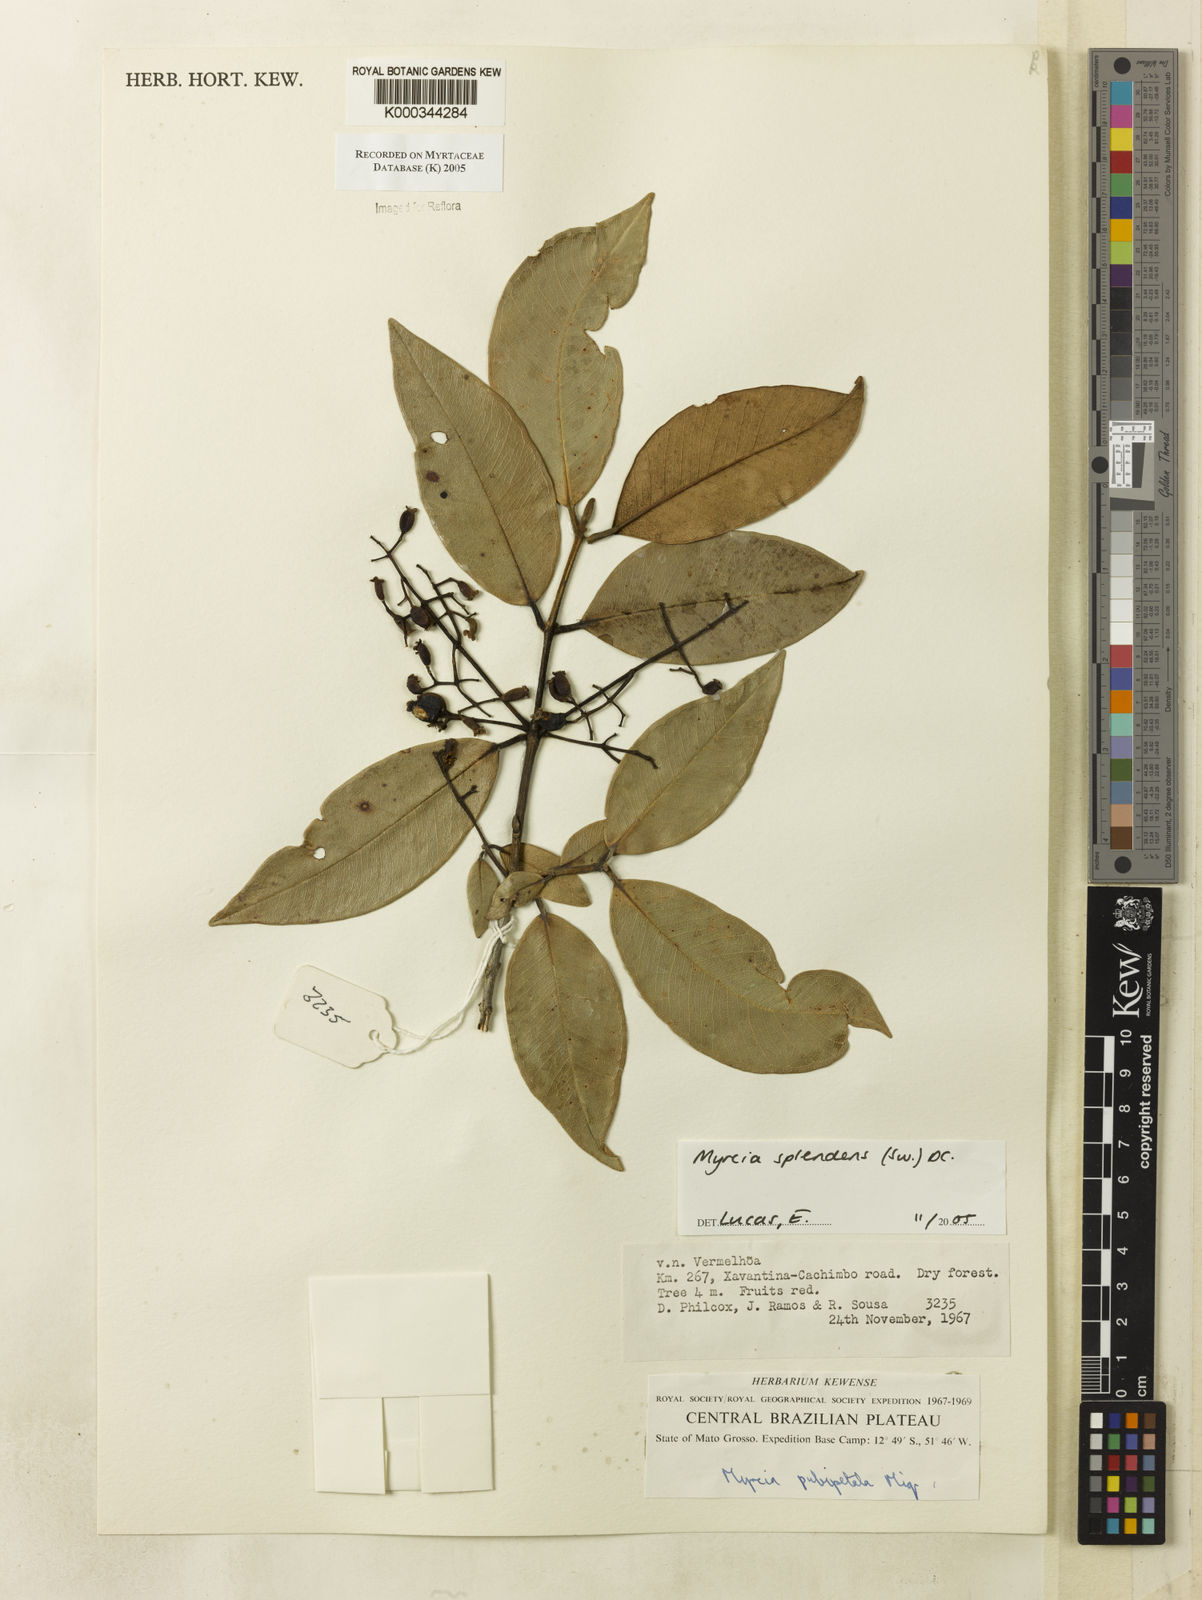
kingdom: Plantae
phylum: Tracheophyta
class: Magnoliopsida
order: Myrtales
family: Myrtaceae
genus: Myrcia
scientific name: Myrcia splendens
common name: Surinam cherry
